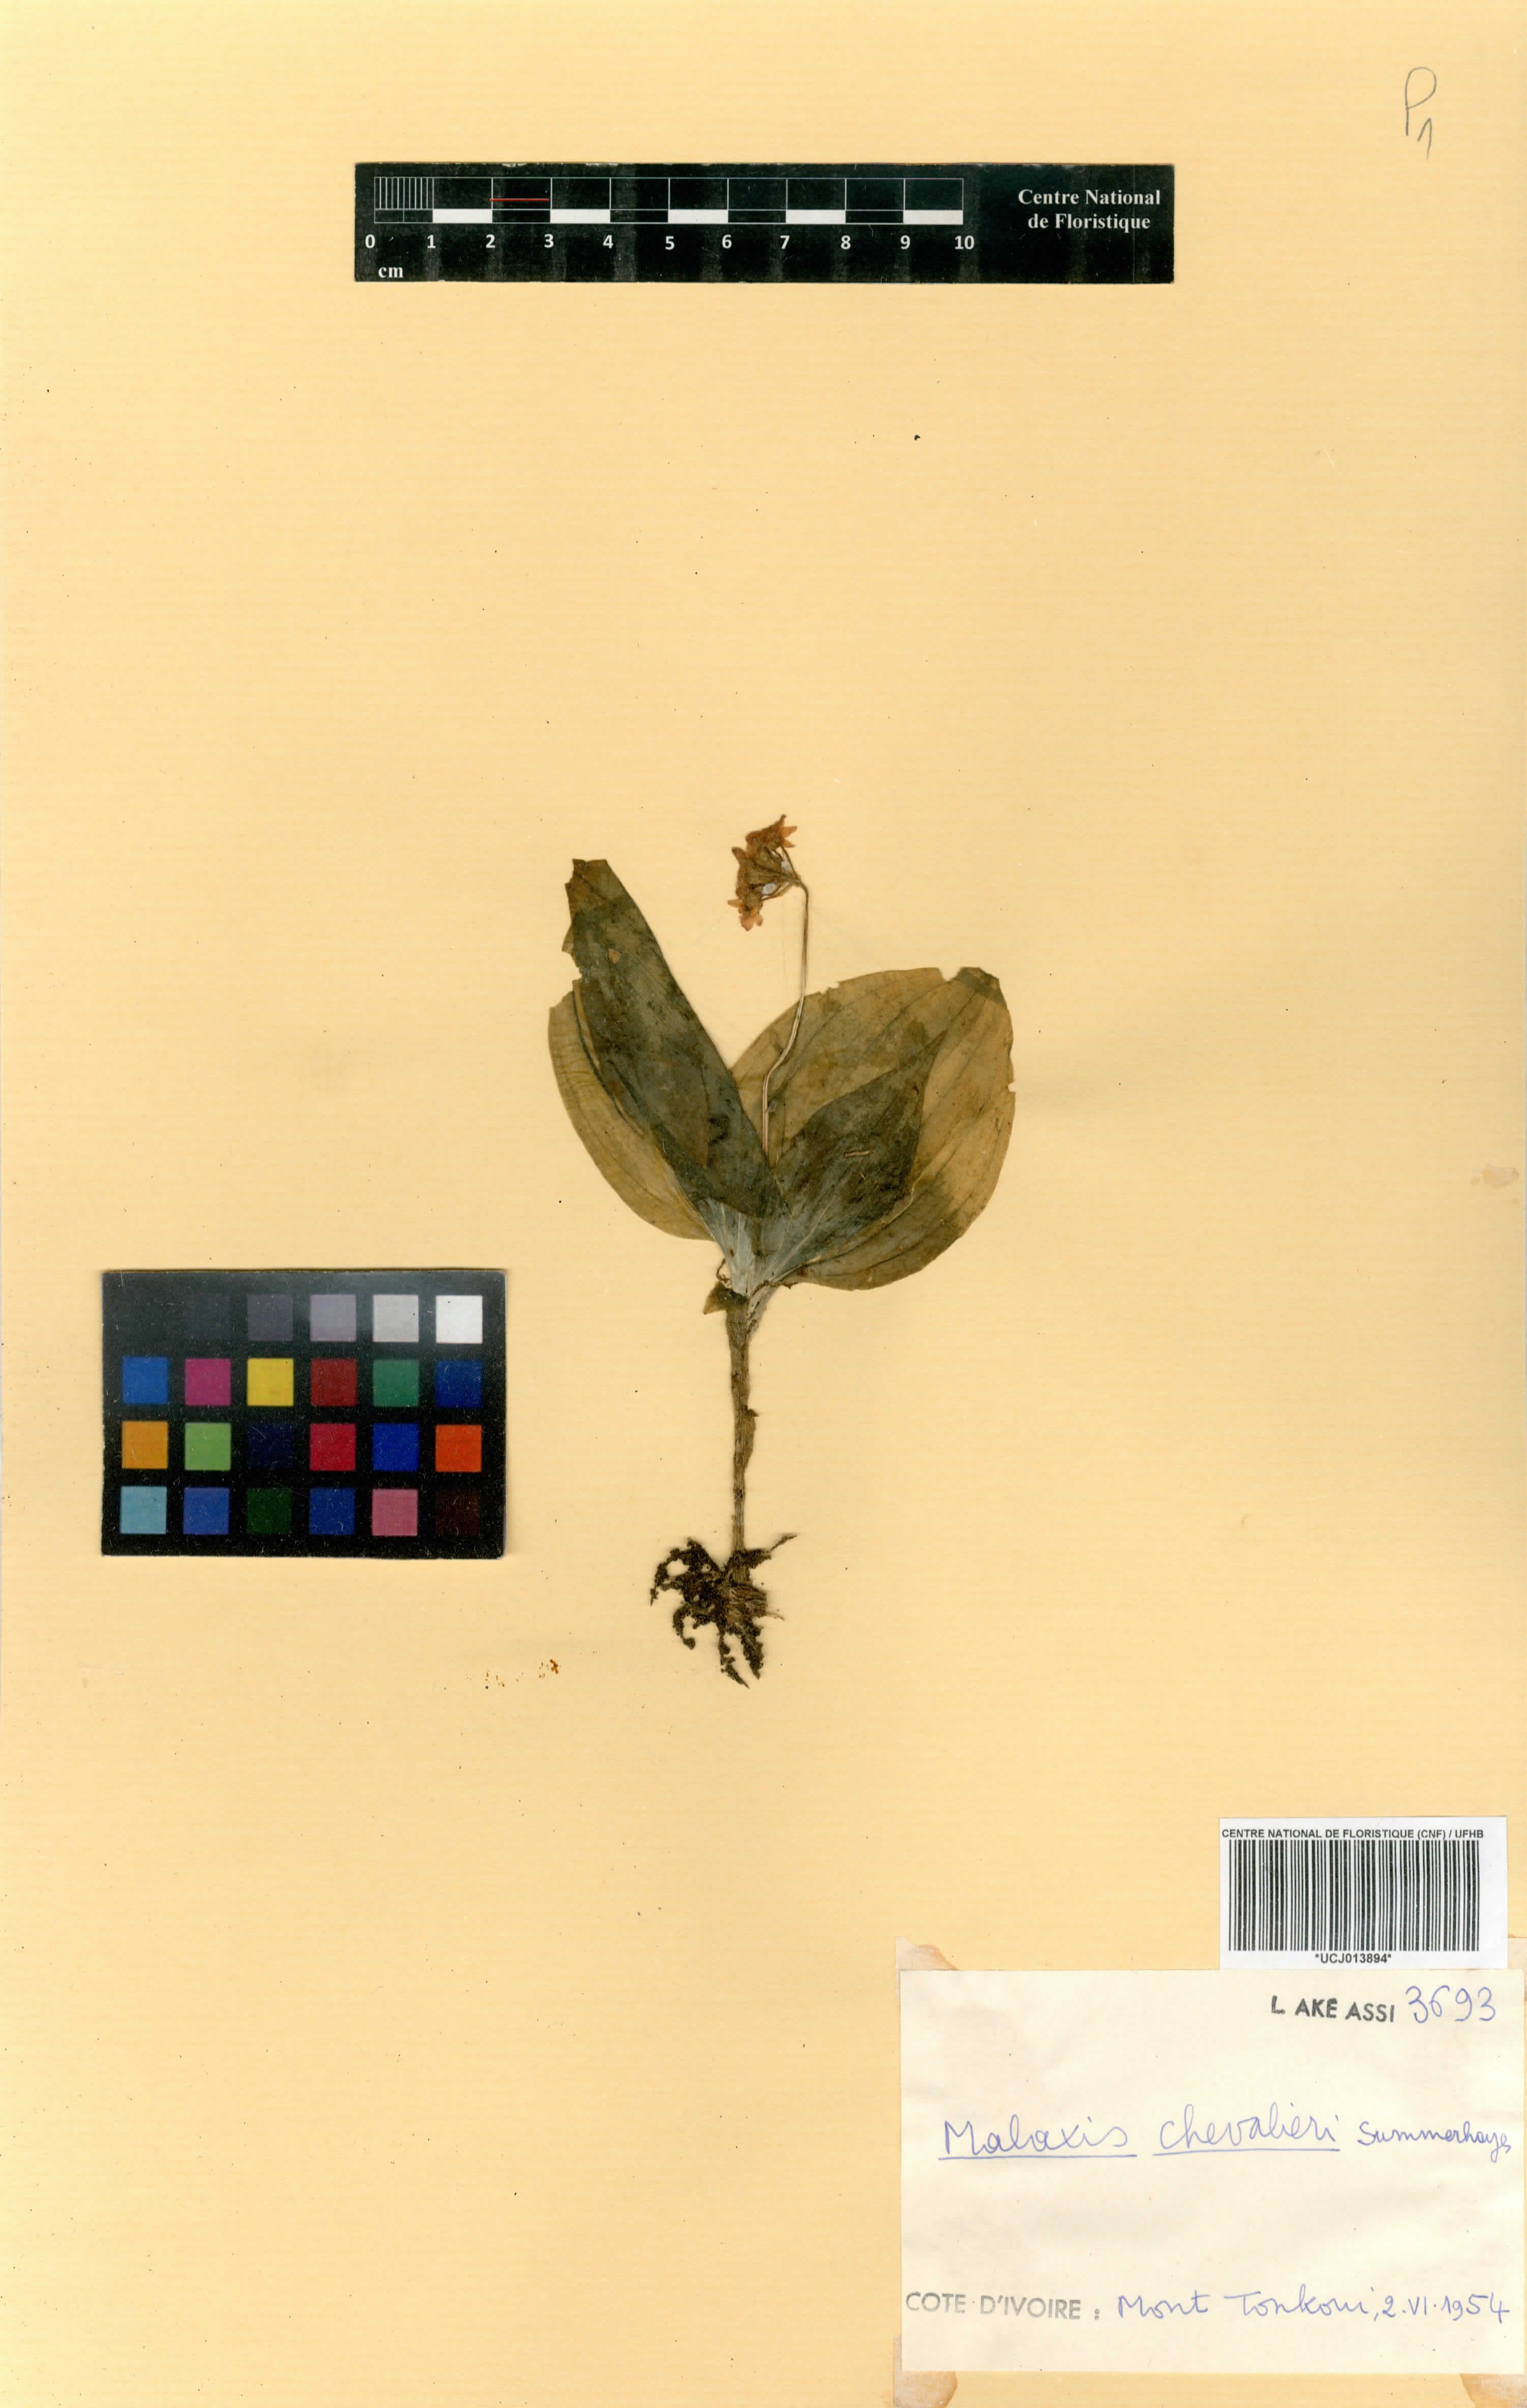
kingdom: Plantae
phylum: Tracheophyta
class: Liliopsida
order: Asparagales
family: Orchidaceae
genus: Malaxis
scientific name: Malaxis chevalieri
